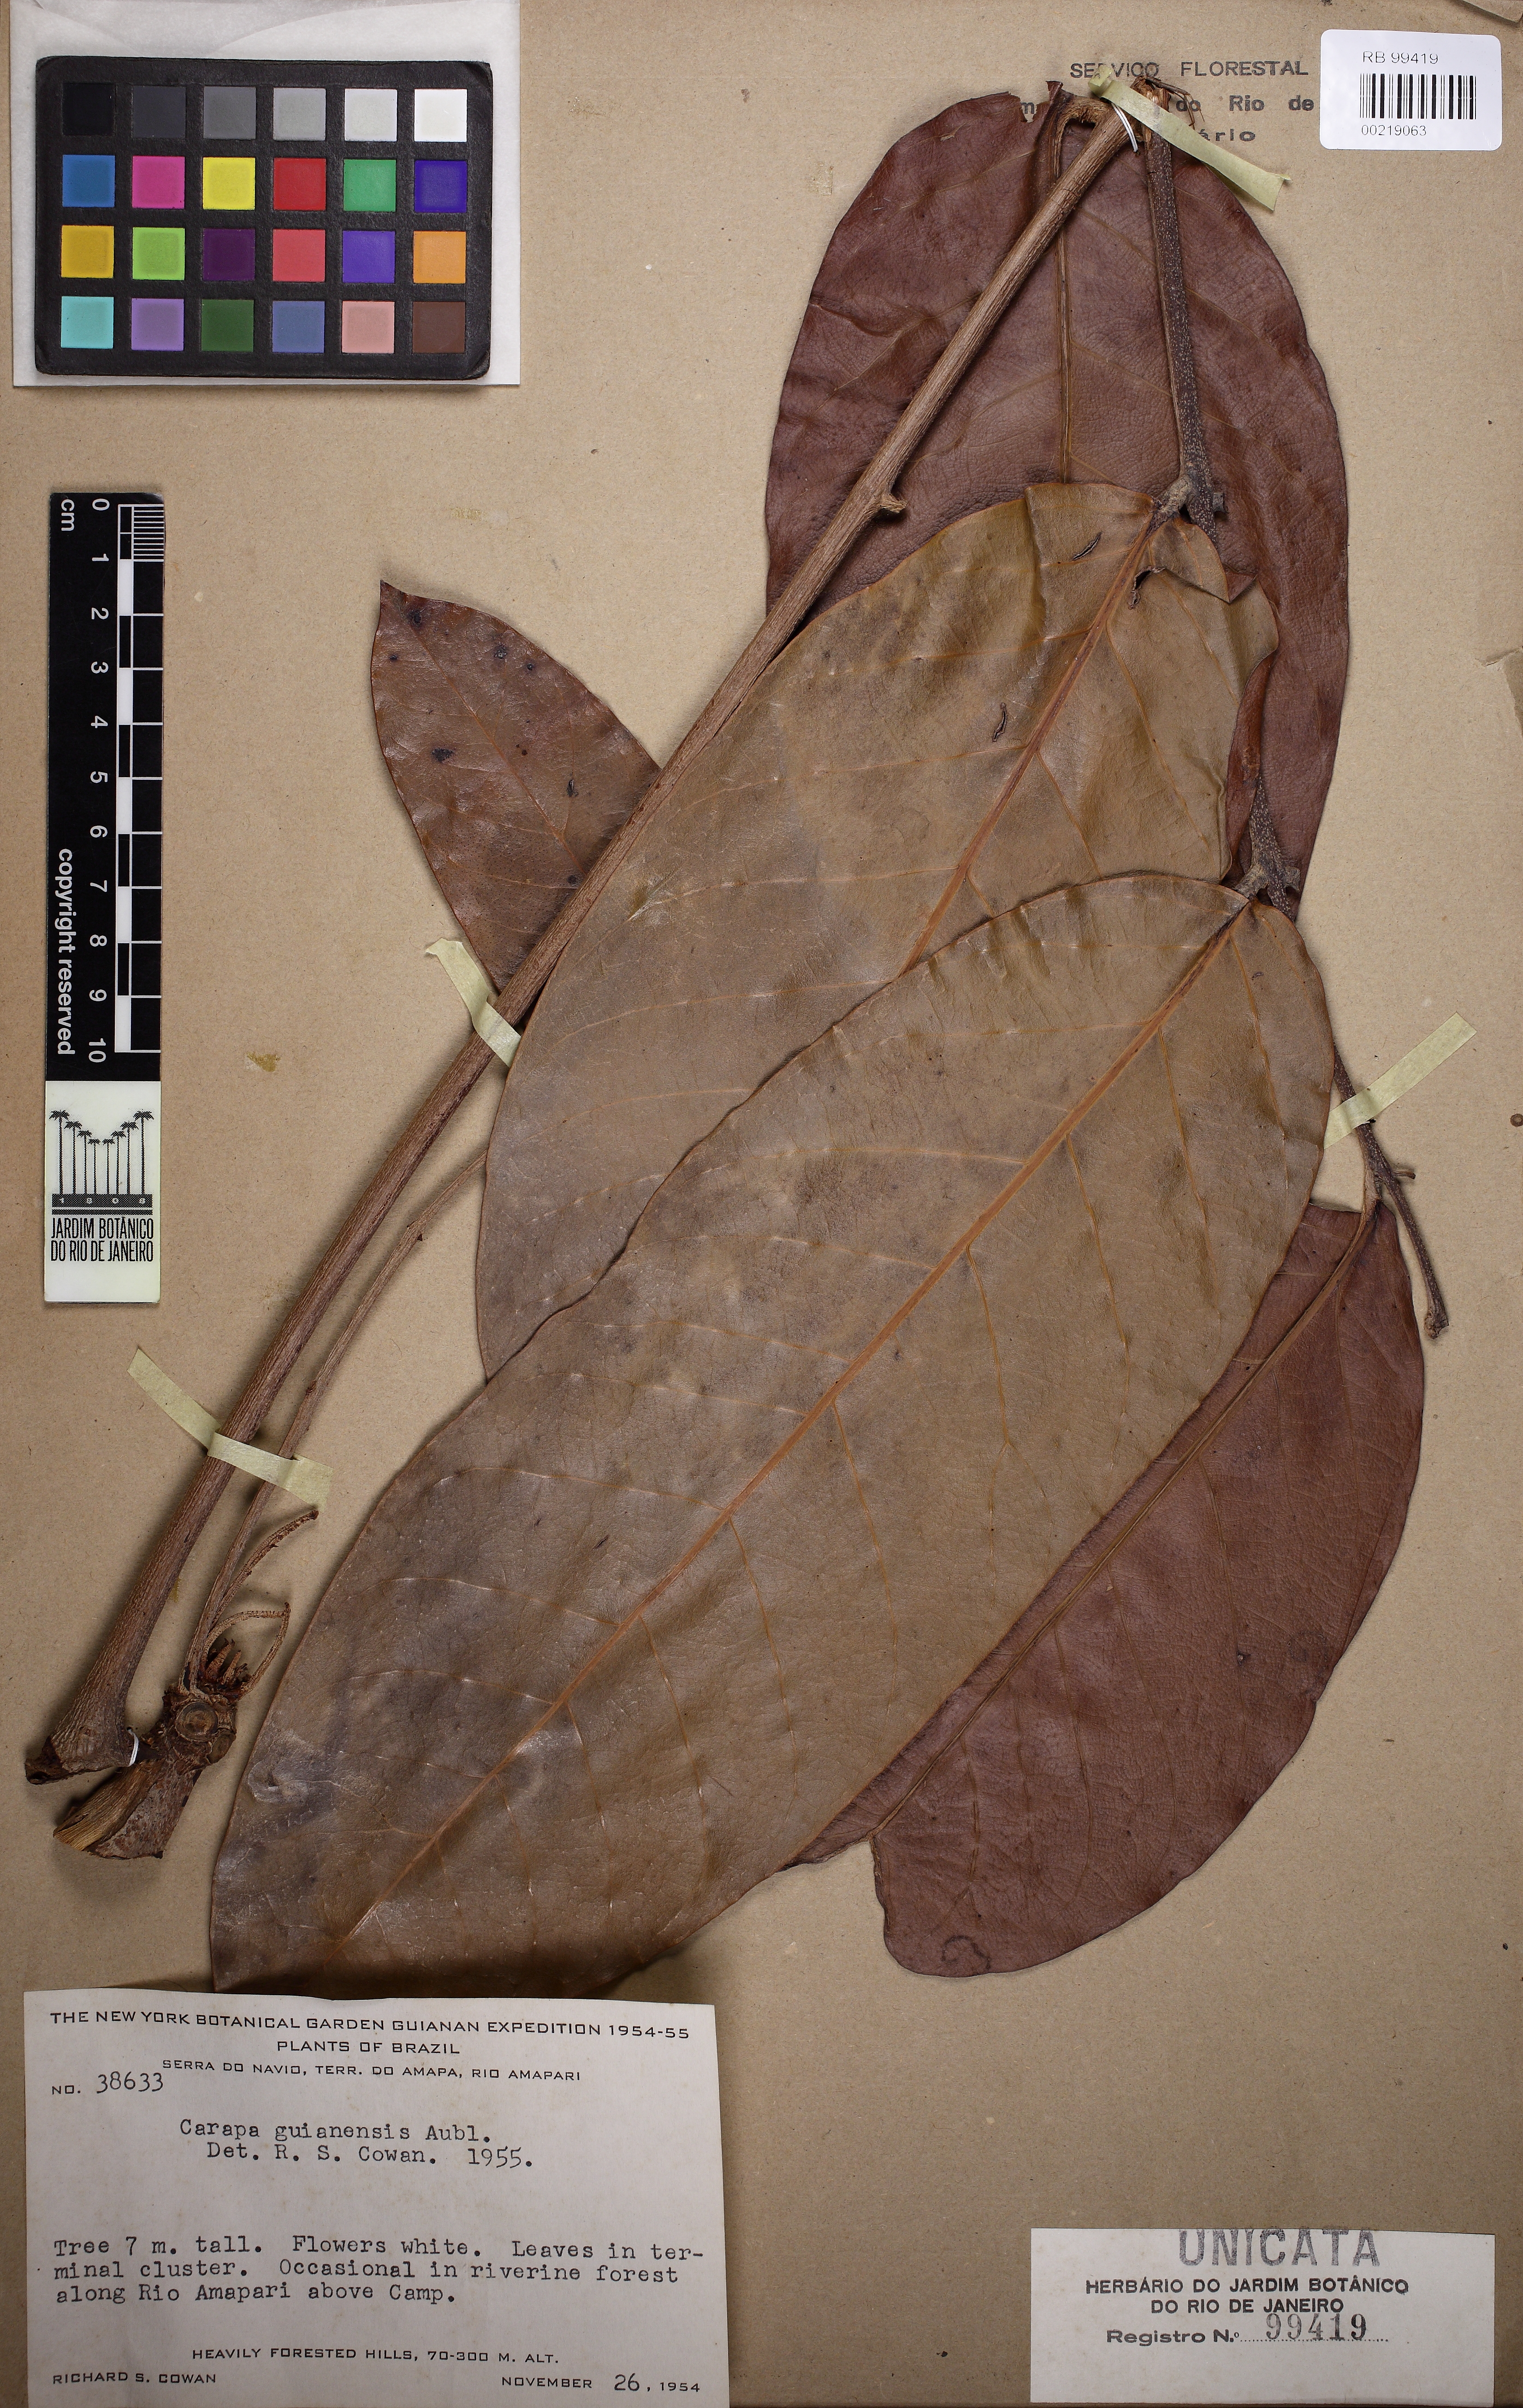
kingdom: Plantae
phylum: Tracheophyta
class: Magnoliopsida
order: Sapindales
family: Meliaceae
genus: Carapa
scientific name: Carapa guianensis
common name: Crabwood
